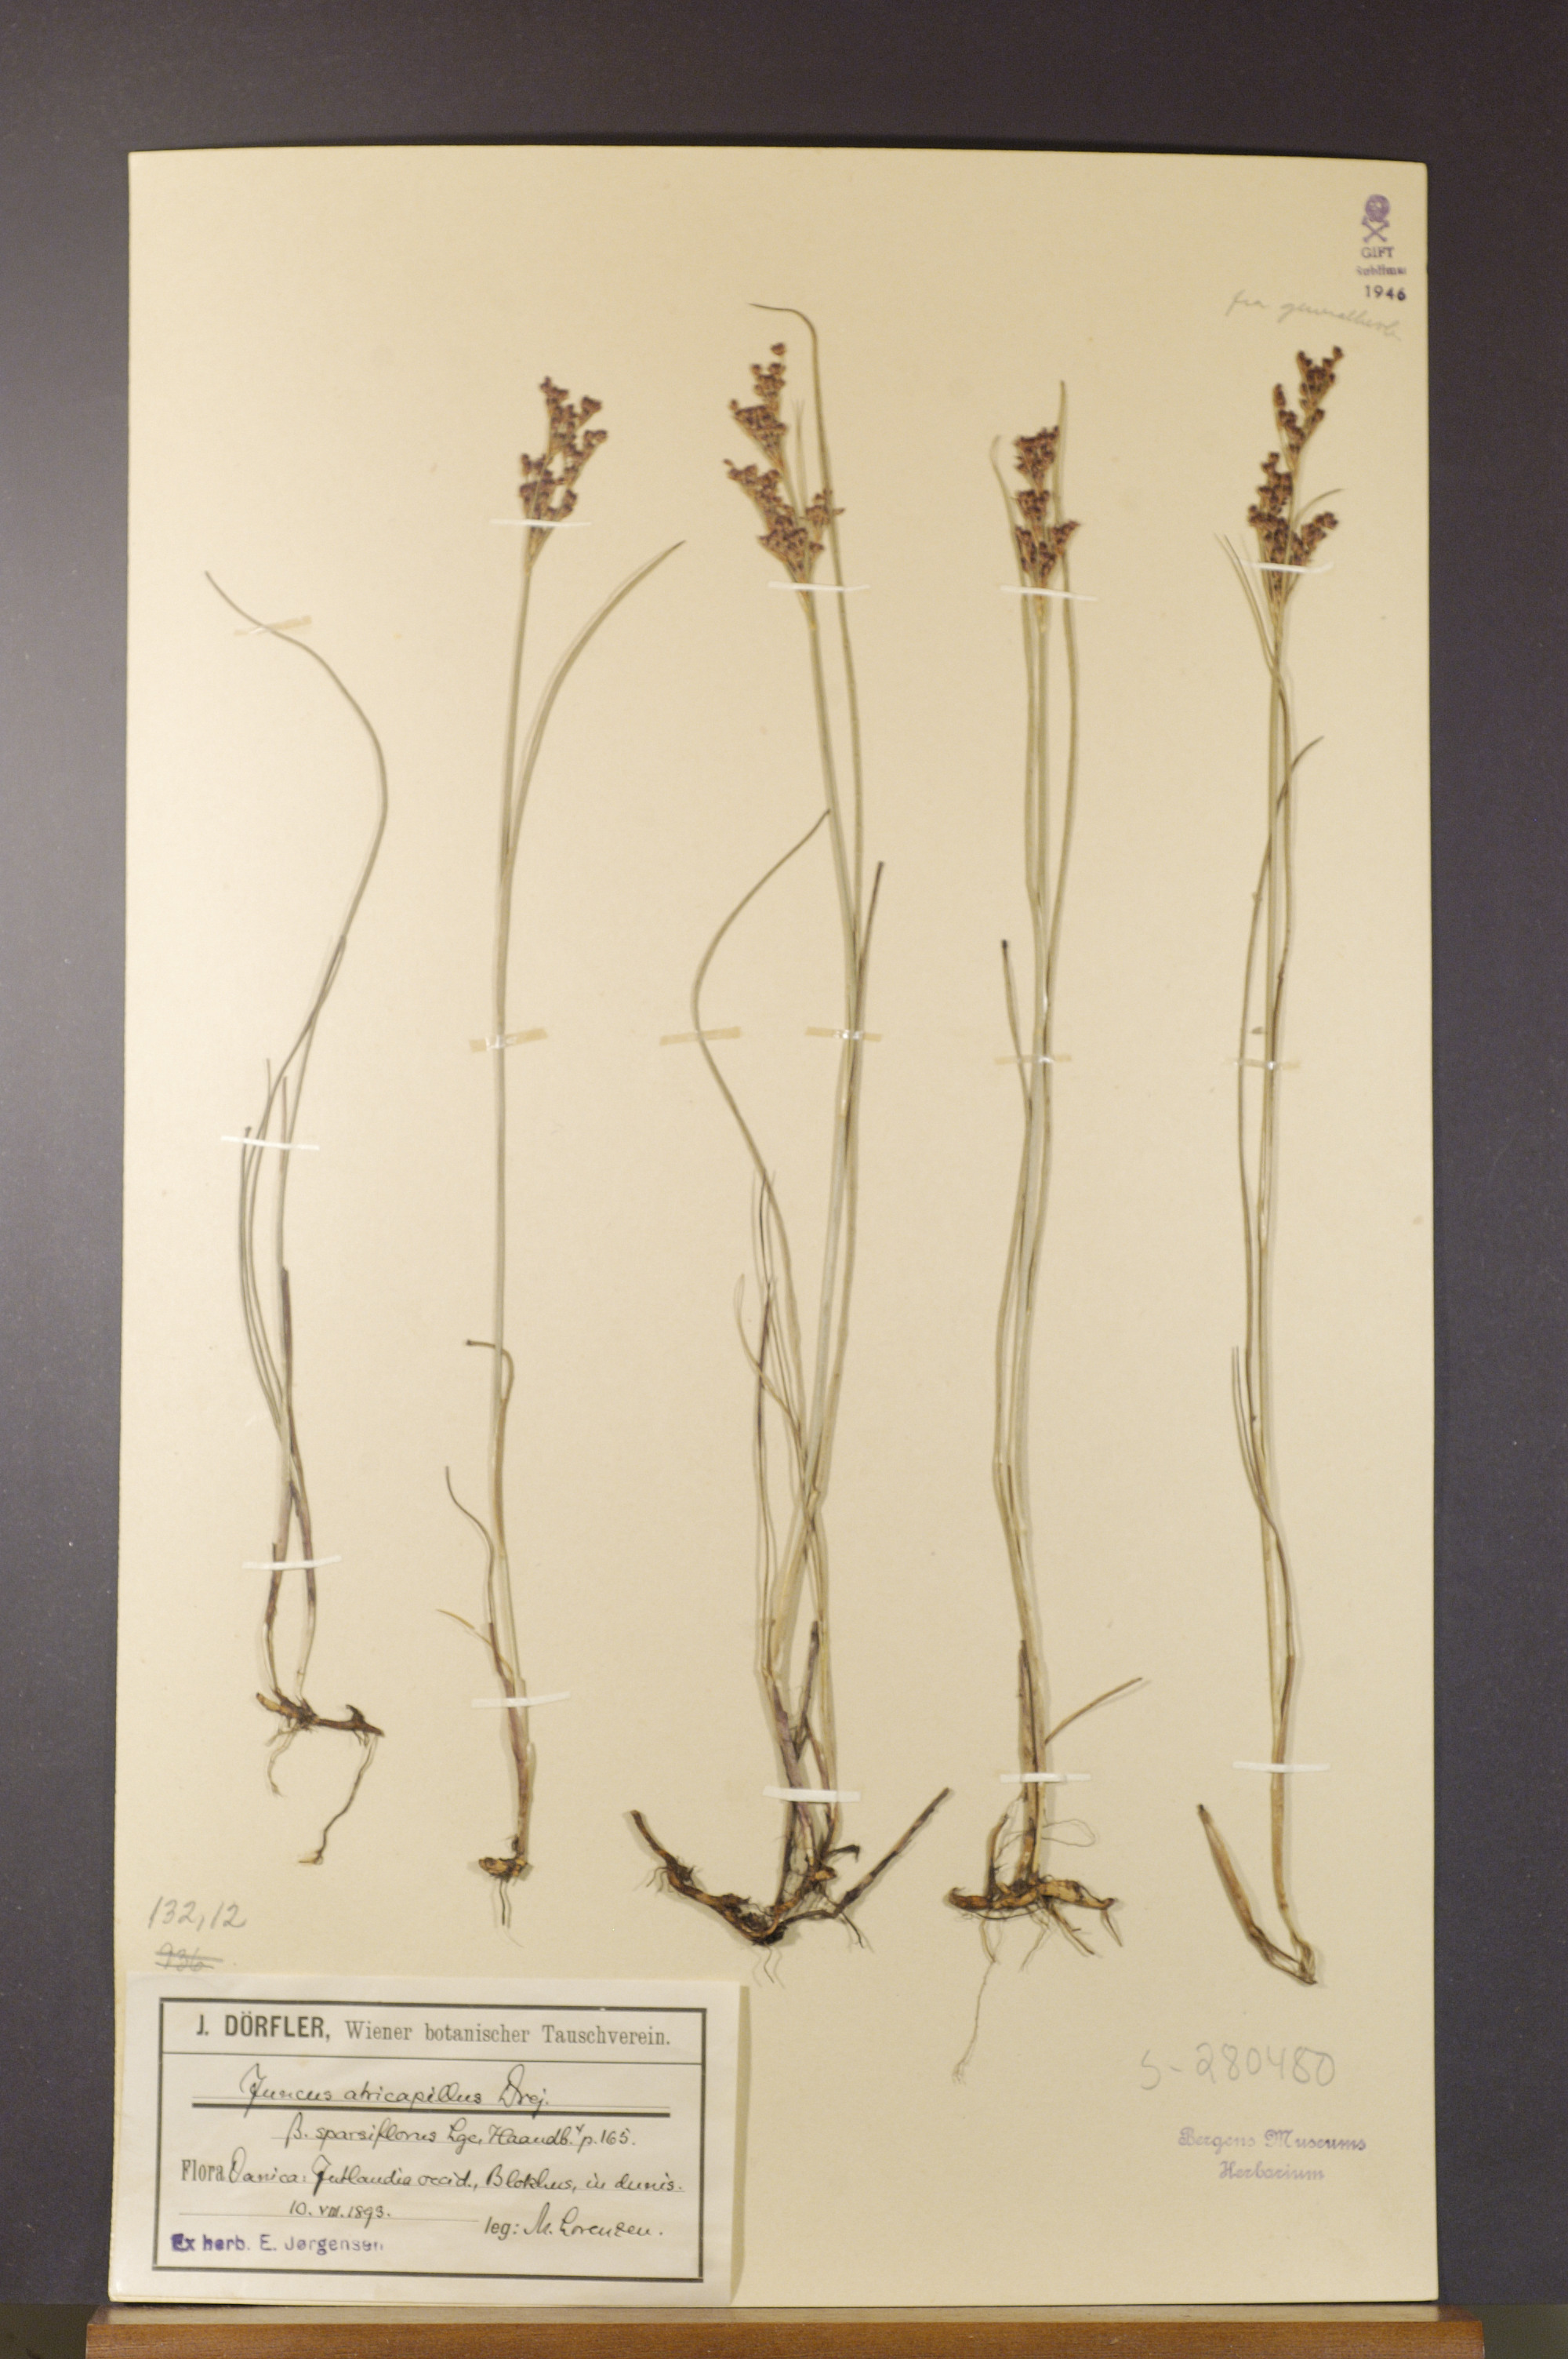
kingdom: Plantae
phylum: Tracheophyta
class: Liliopsida
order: Poales
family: Juncaceae
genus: Juncus
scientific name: Juncus anceps
